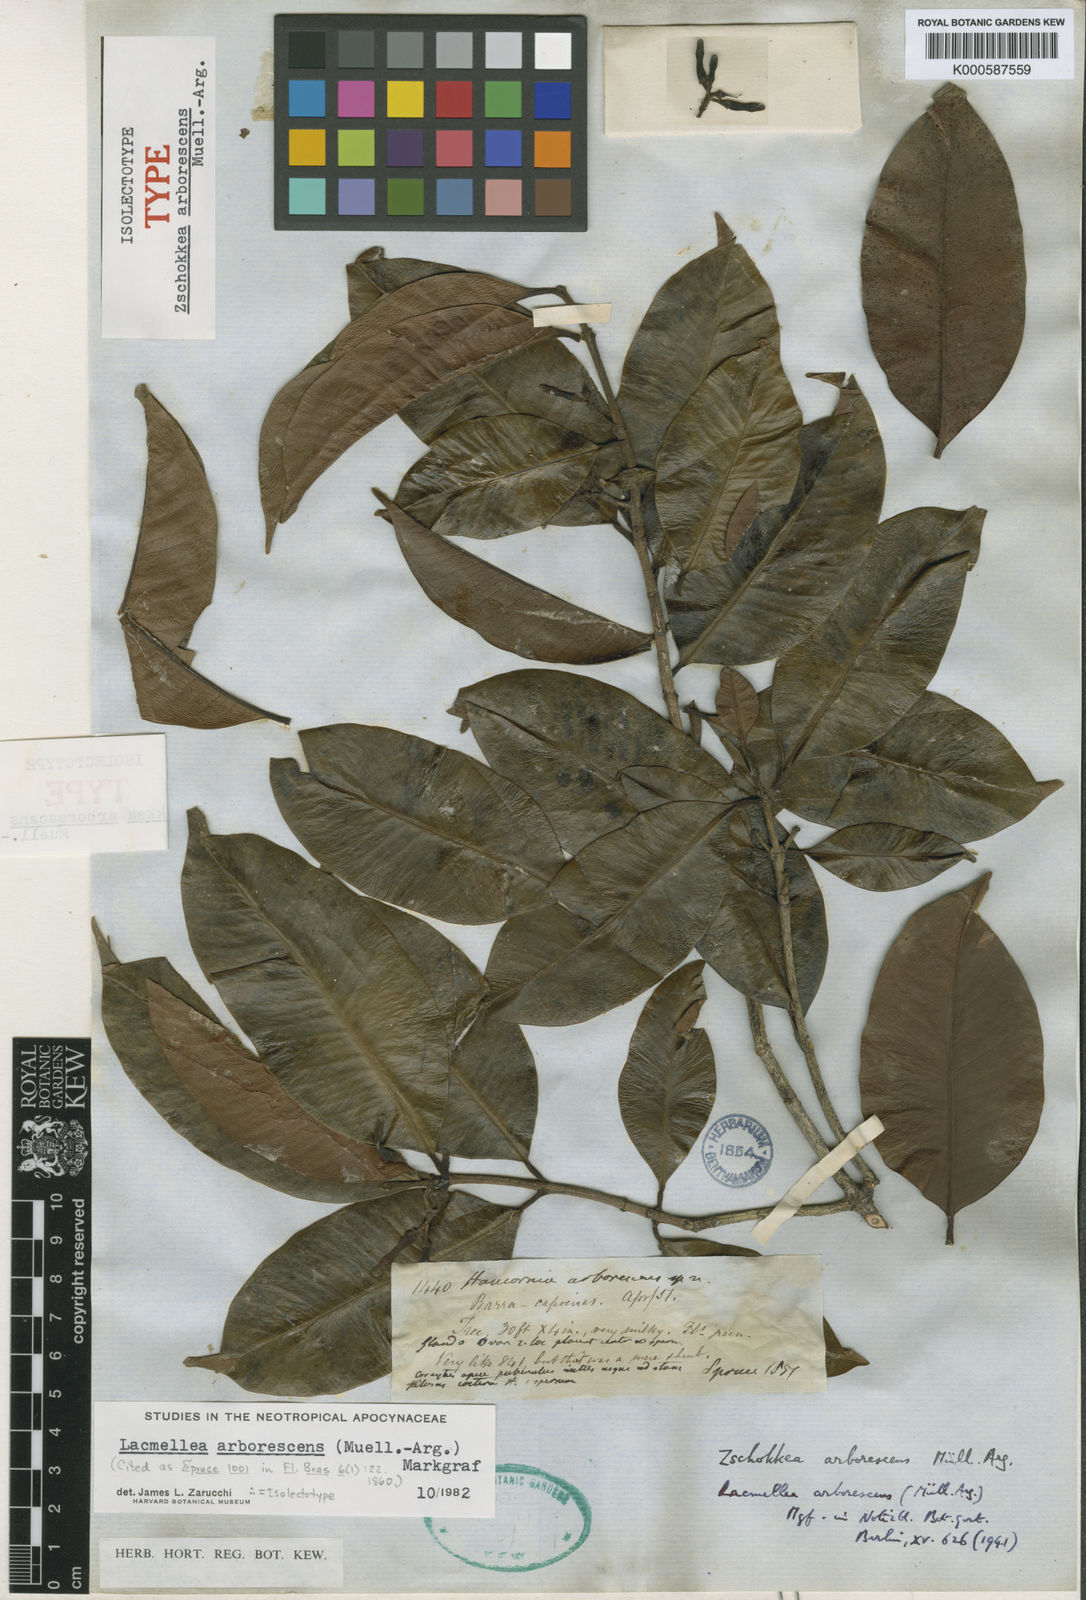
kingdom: Plantae
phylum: Tracheophyta
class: Magnoliopsida
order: Gentianales
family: Apocynaceae
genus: Lacmellea
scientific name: Lacmellea
